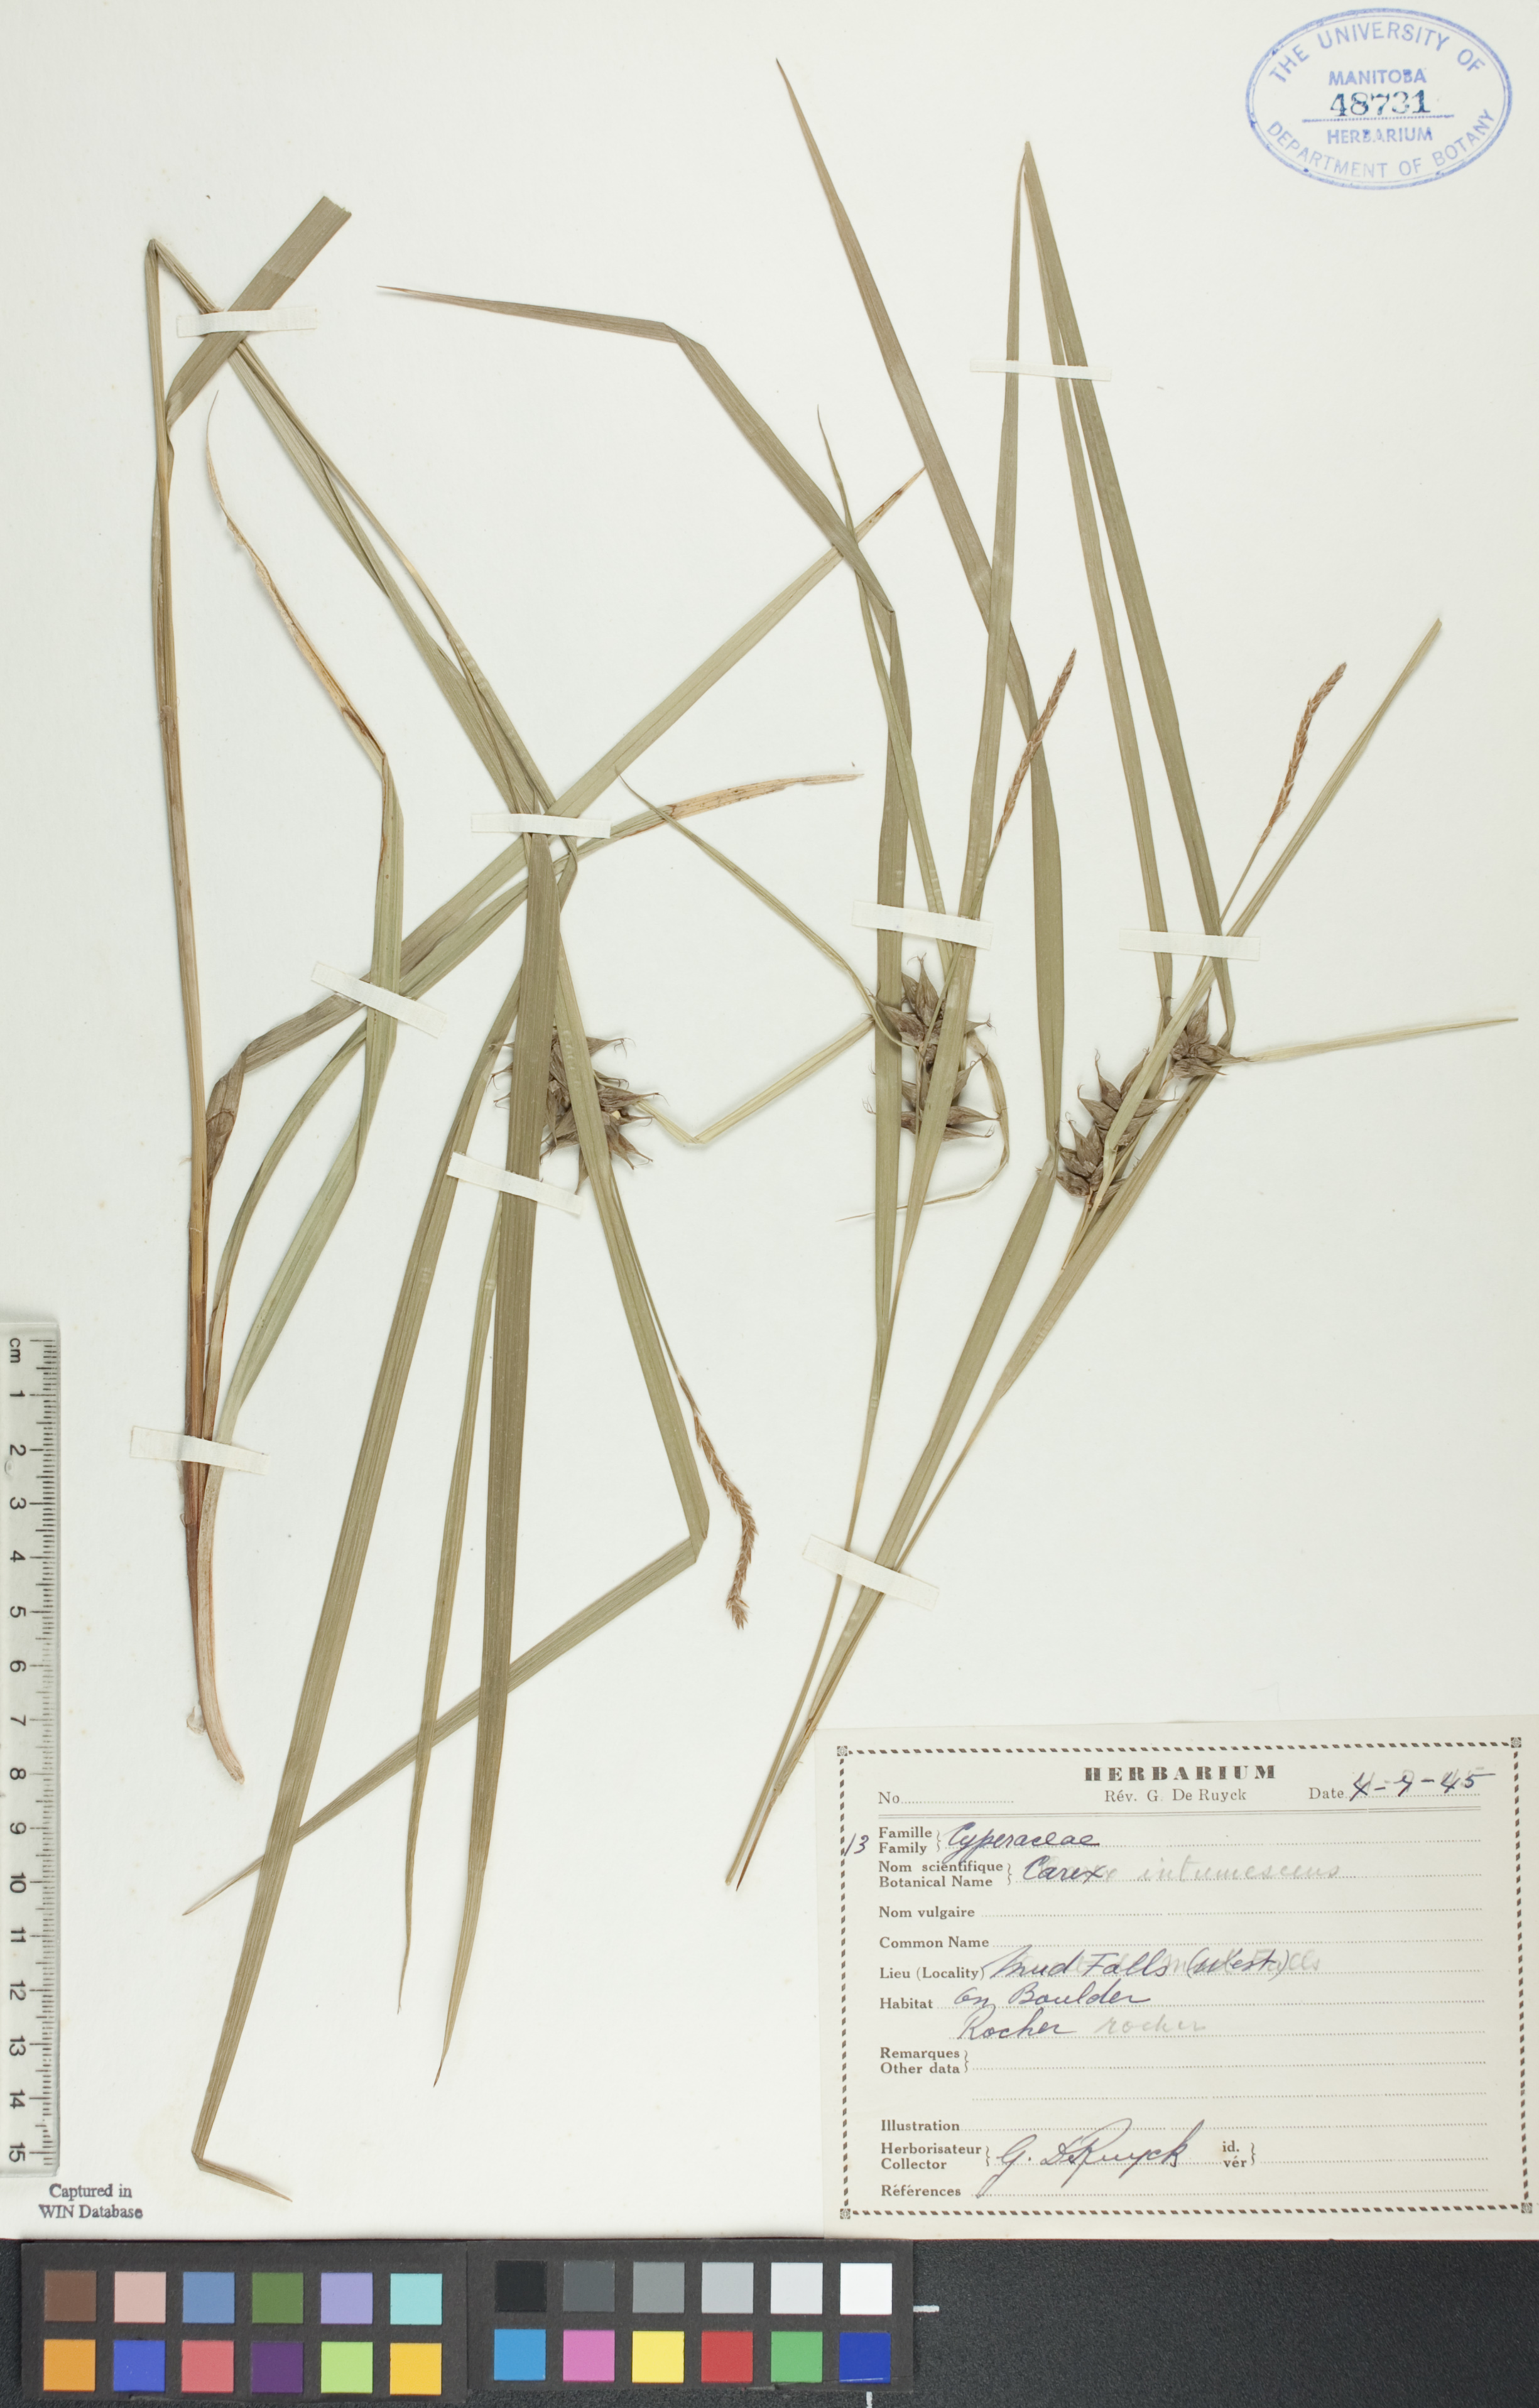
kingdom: Plantae
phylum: Tracheophyta
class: Liliopsida
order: Poales
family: Cyperaceae
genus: Carex
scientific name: Carex intumescens
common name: Greater bladder sedge
